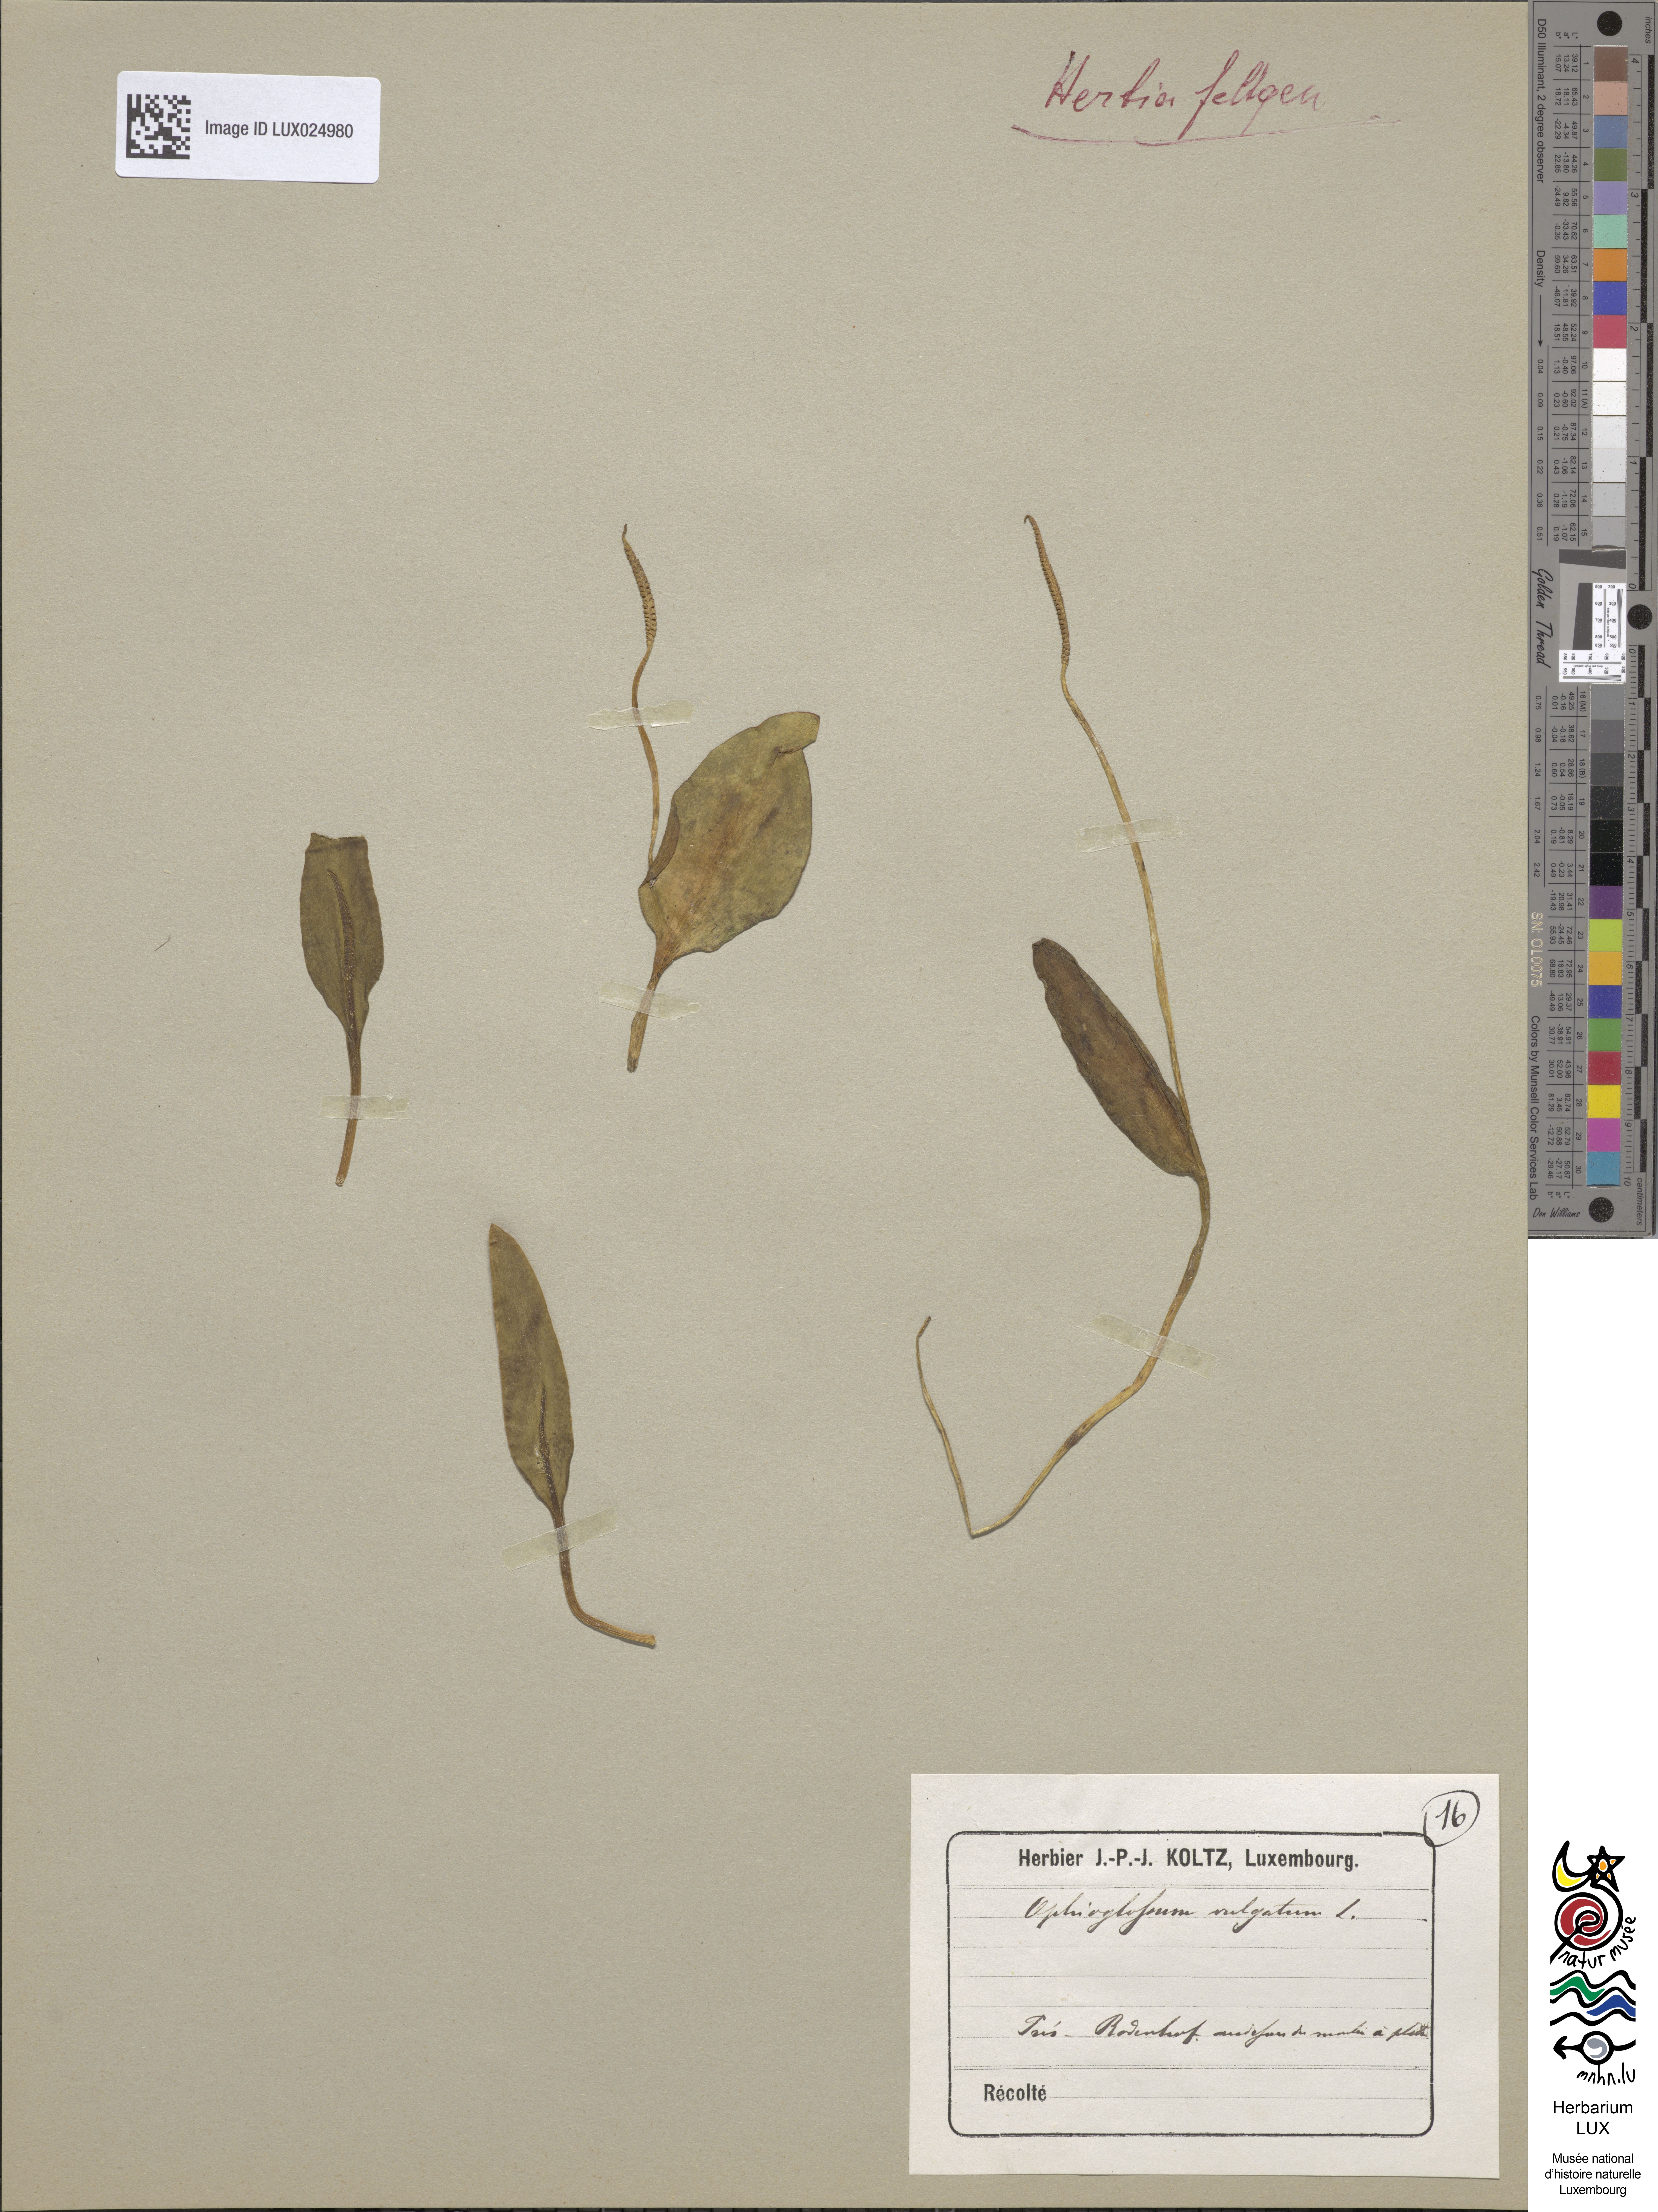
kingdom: Plantae
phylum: Tracheophyta
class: Polypodiopsida
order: Ophioglossales
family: Ophioglossaceae
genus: Ophioglossum
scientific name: Ophioglossum vulgatum
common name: Adder's-tongue
